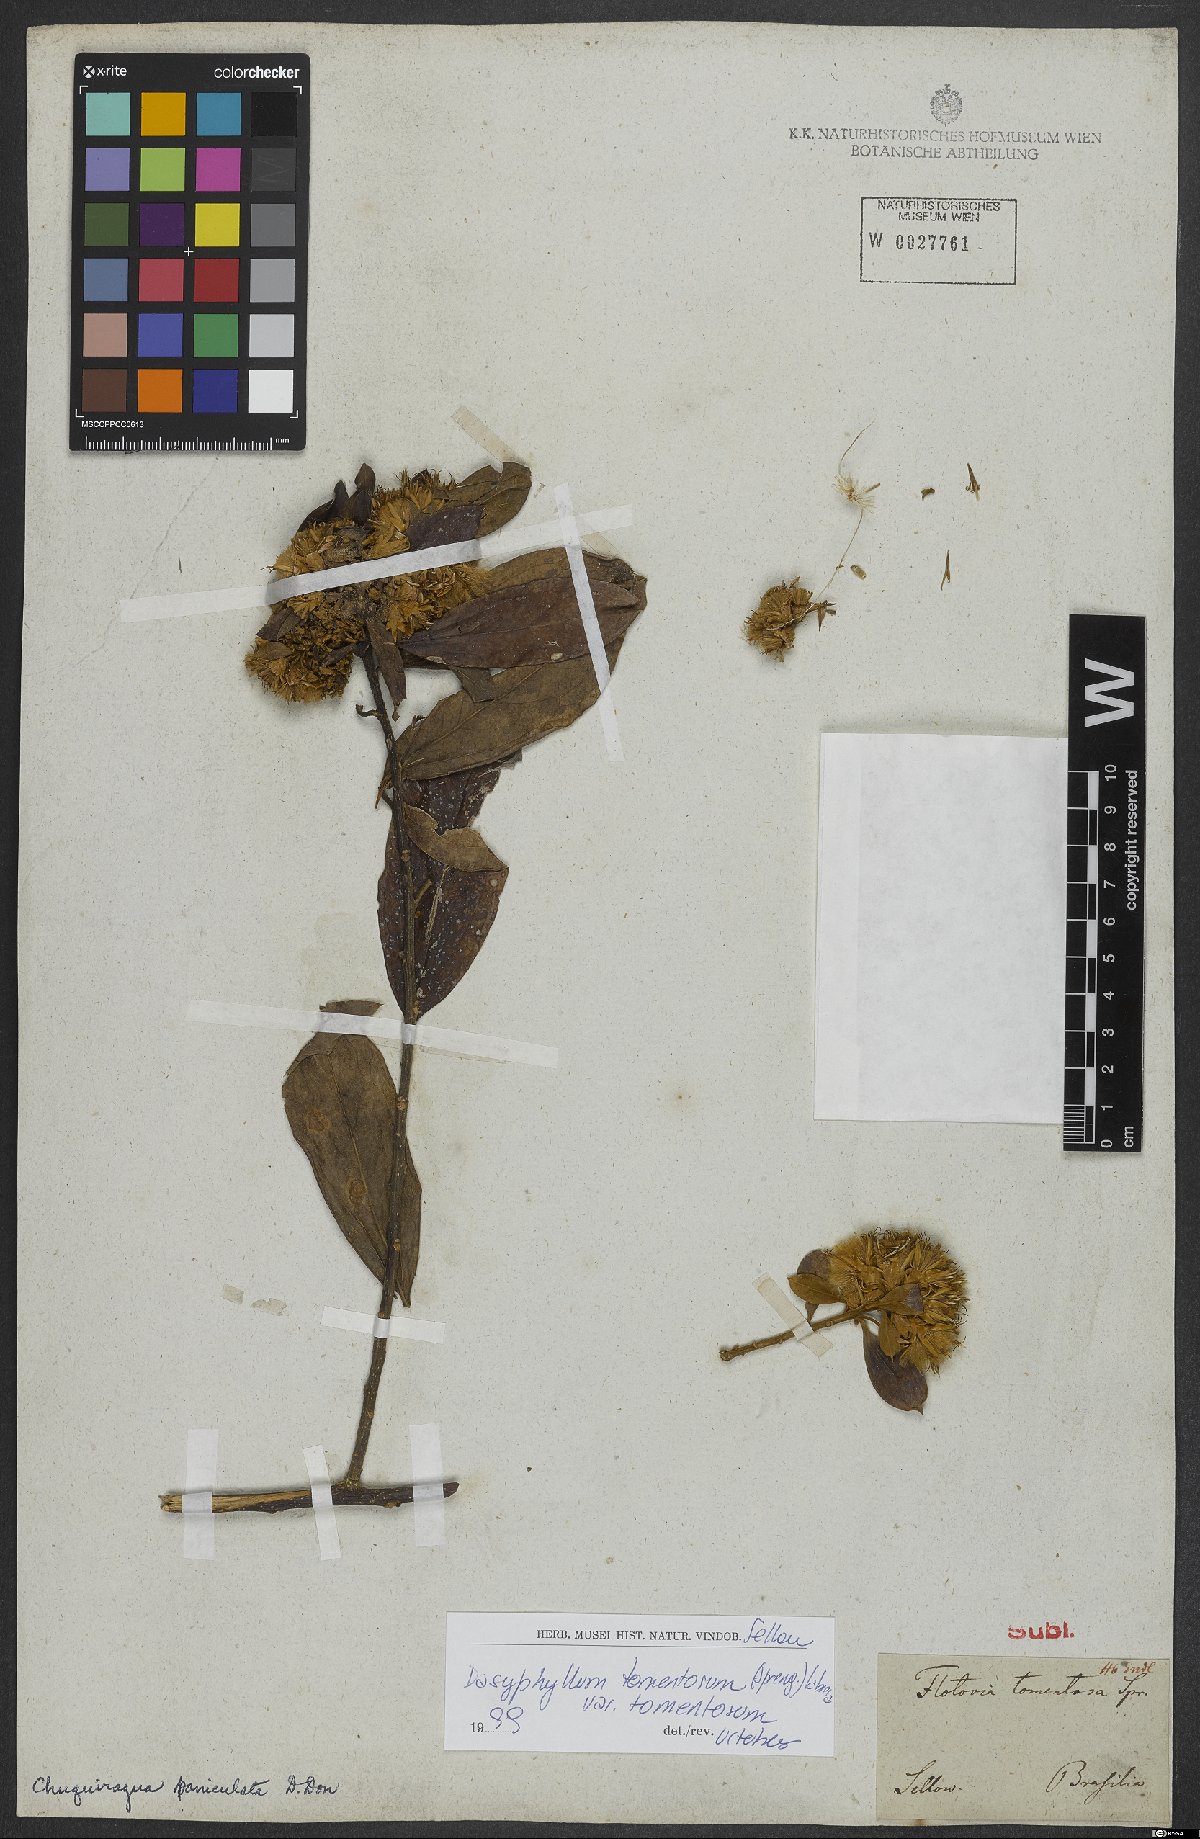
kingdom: Plantae
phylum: Tracheophyta
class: Magnoliopsida
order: Asterales
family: Asteraceae
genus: Dasyphyllum
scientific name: Dasyphyllum tomentosum
